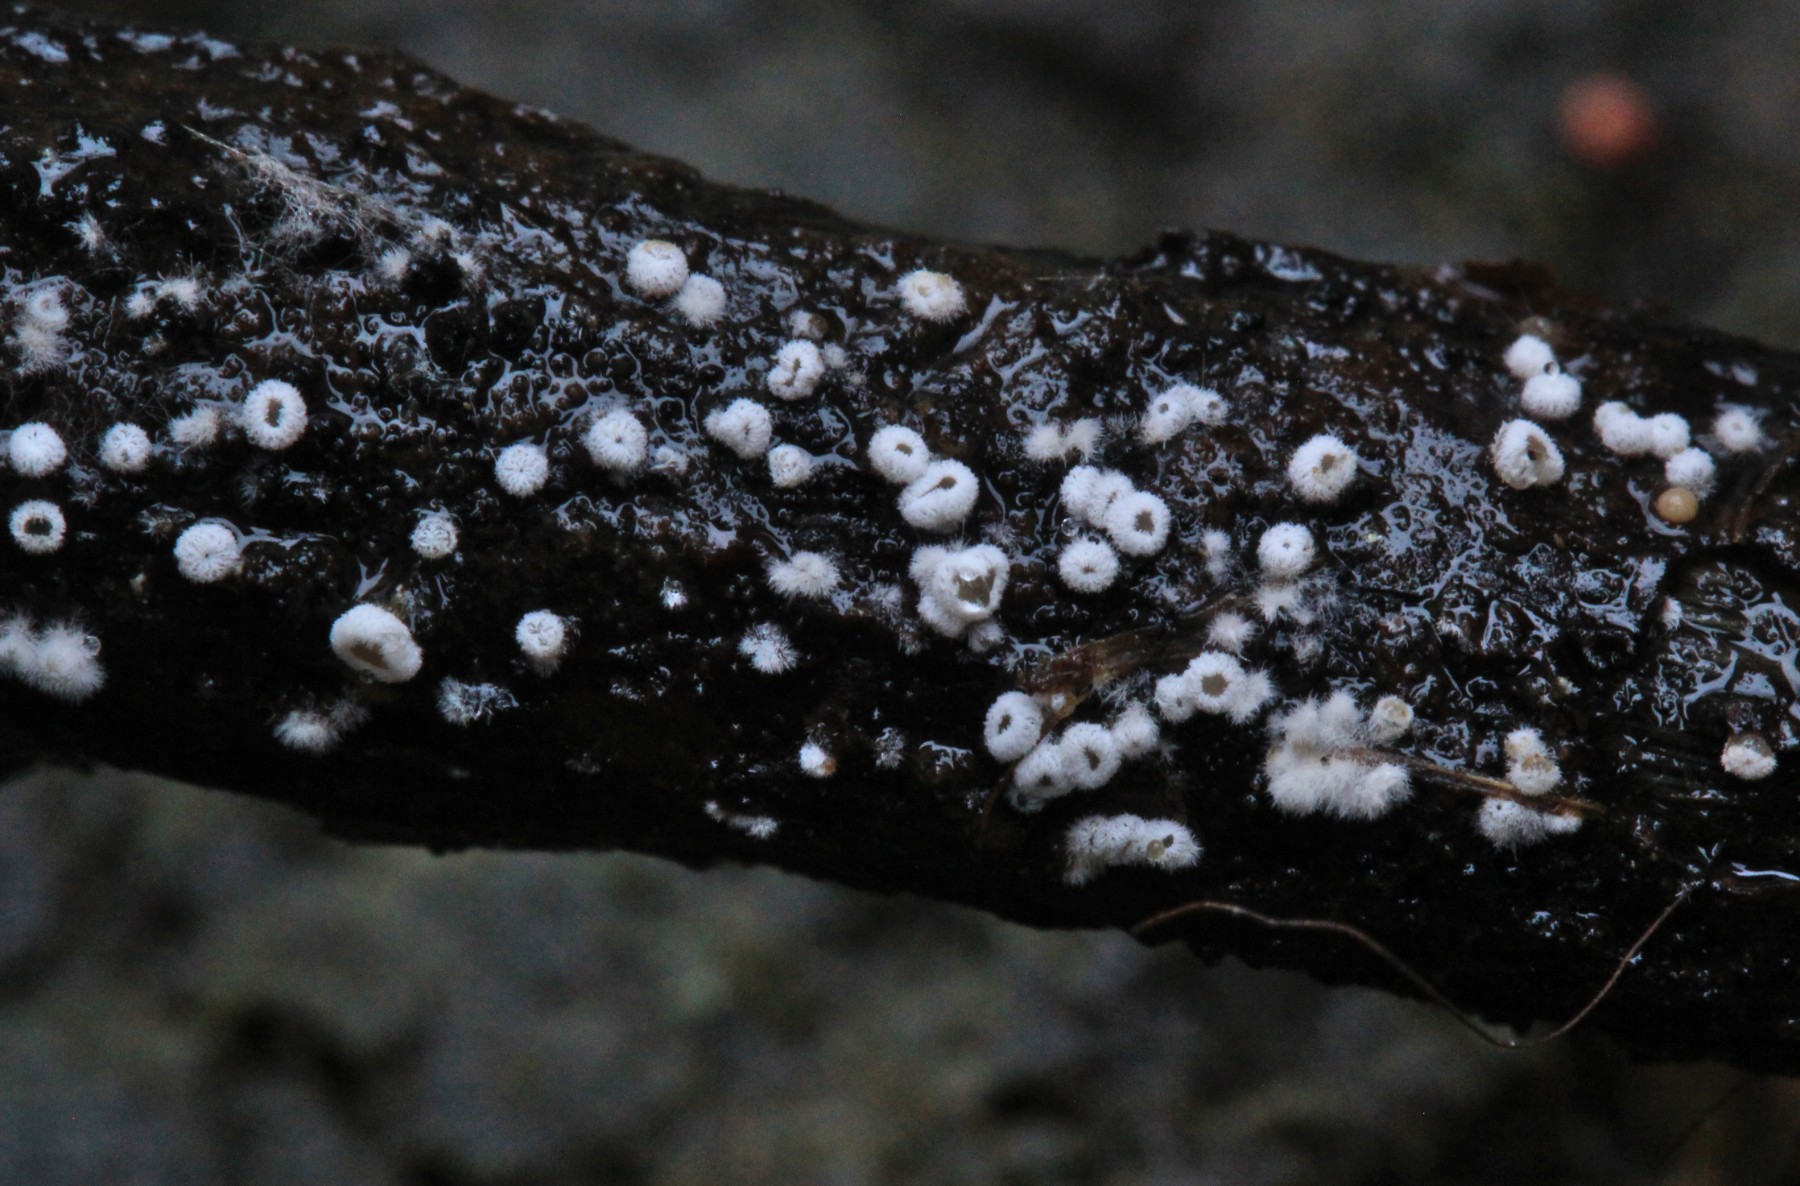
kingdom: Fungi
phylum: Basidiomycota
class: Agaricomycetes
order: Agaricales
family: Niaceae
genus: Lachnella
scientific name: Lachnella alboviolascens
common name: grå frynserede
